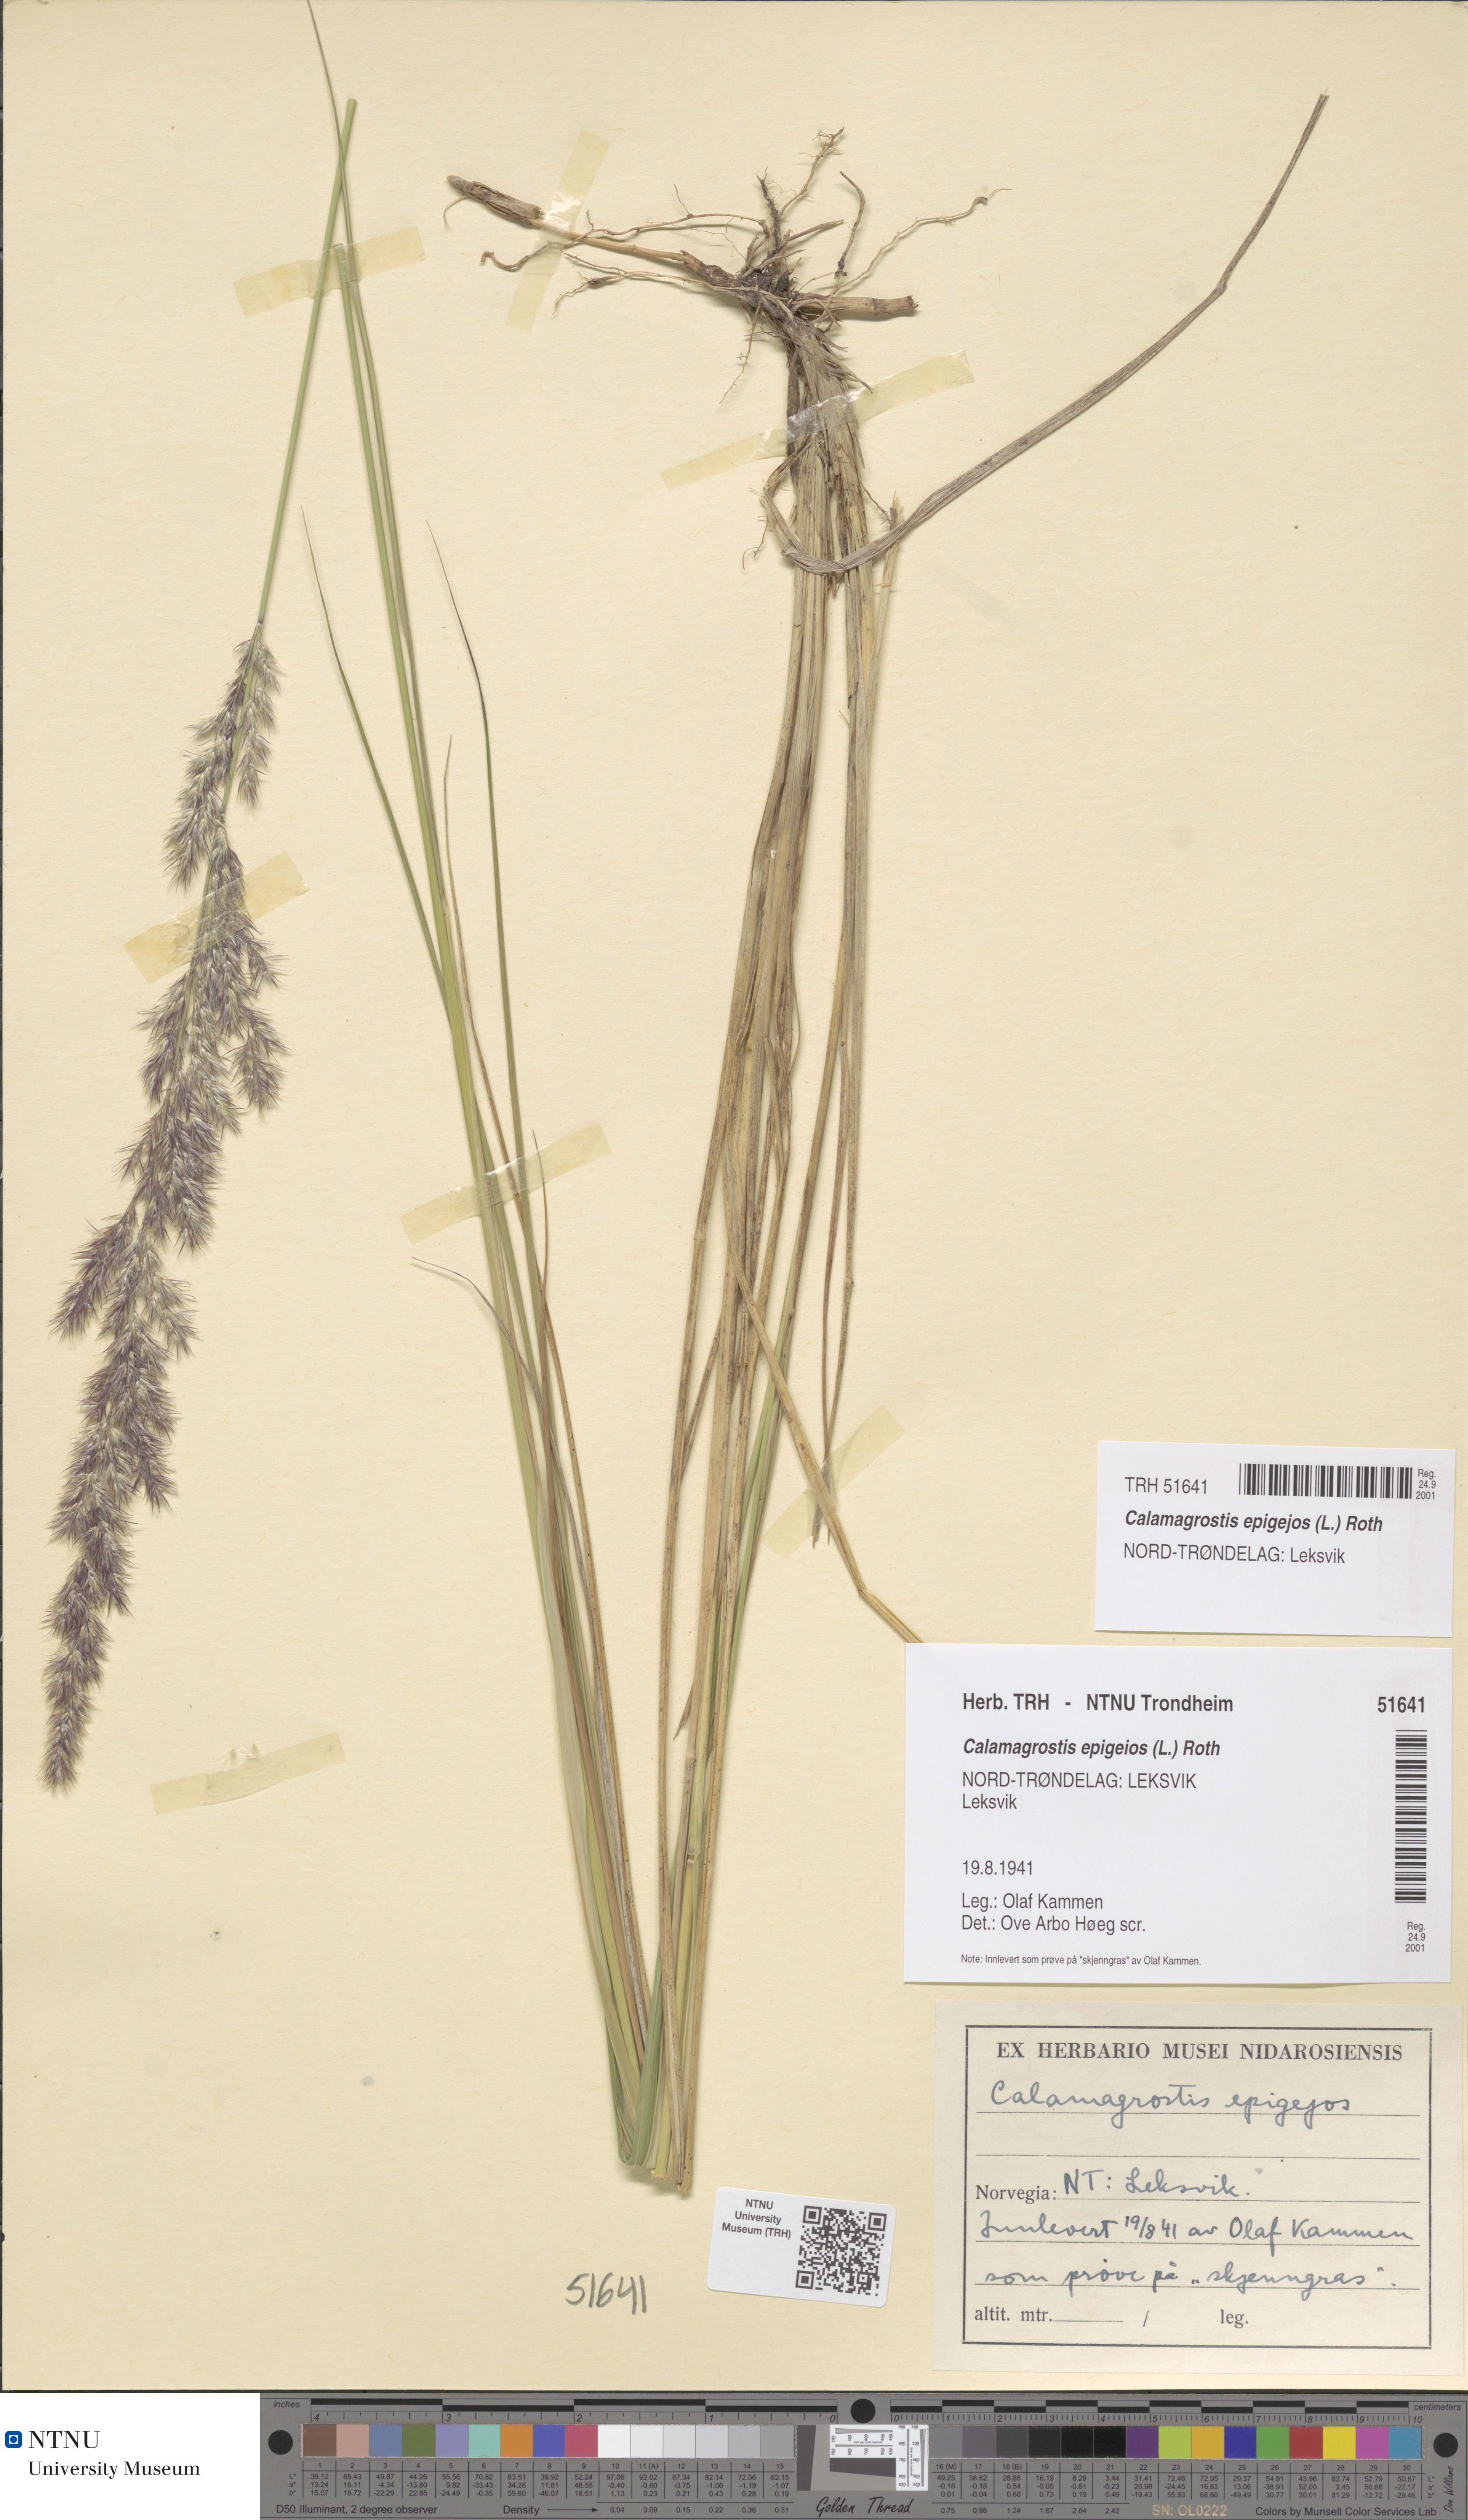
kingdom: Plantae
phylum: Tracheophyta
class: Liliopsida
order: Poales
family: Poaceae
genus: Calamagrostis
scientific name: Calamagrostis epigejos
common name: Wood small-reed
